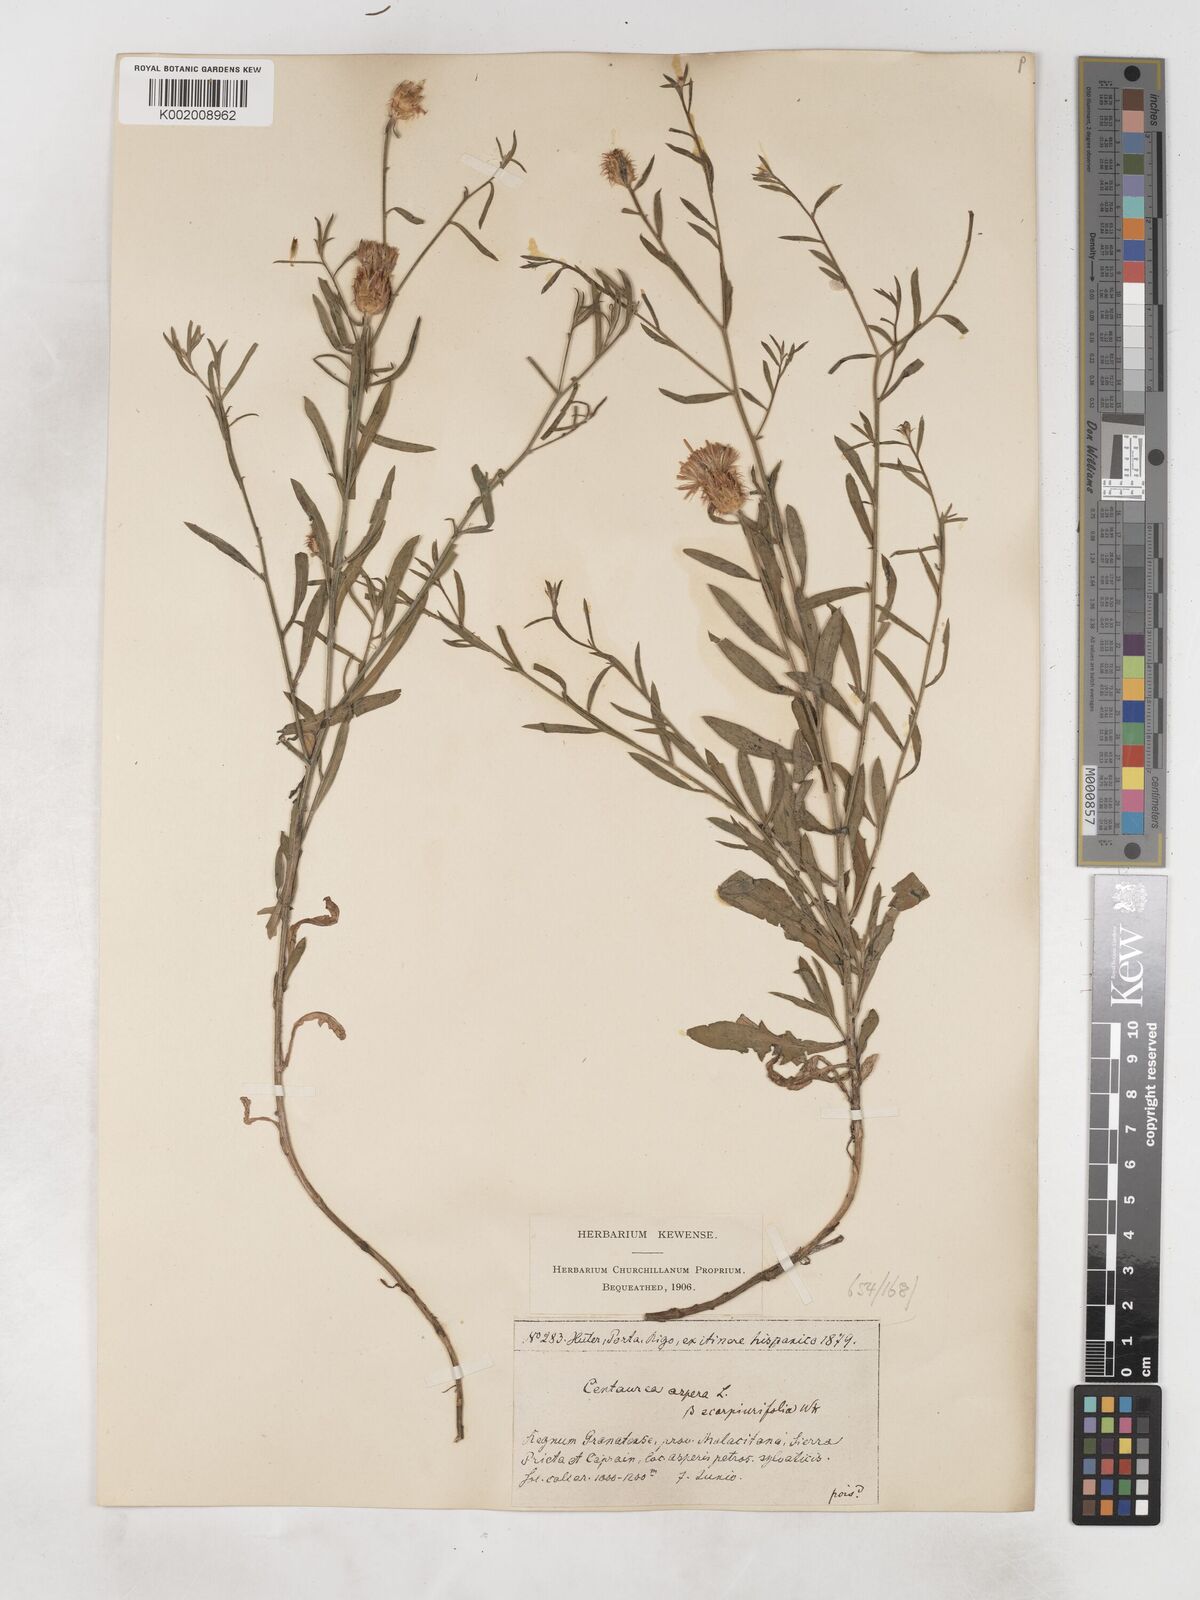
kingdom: Plantae
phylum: Tracheophyta
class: Magnoliopsida
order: Asterales
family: Asteraceae
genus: Centaurea
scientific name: Centaurea aspera
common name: Rough star-thistle
